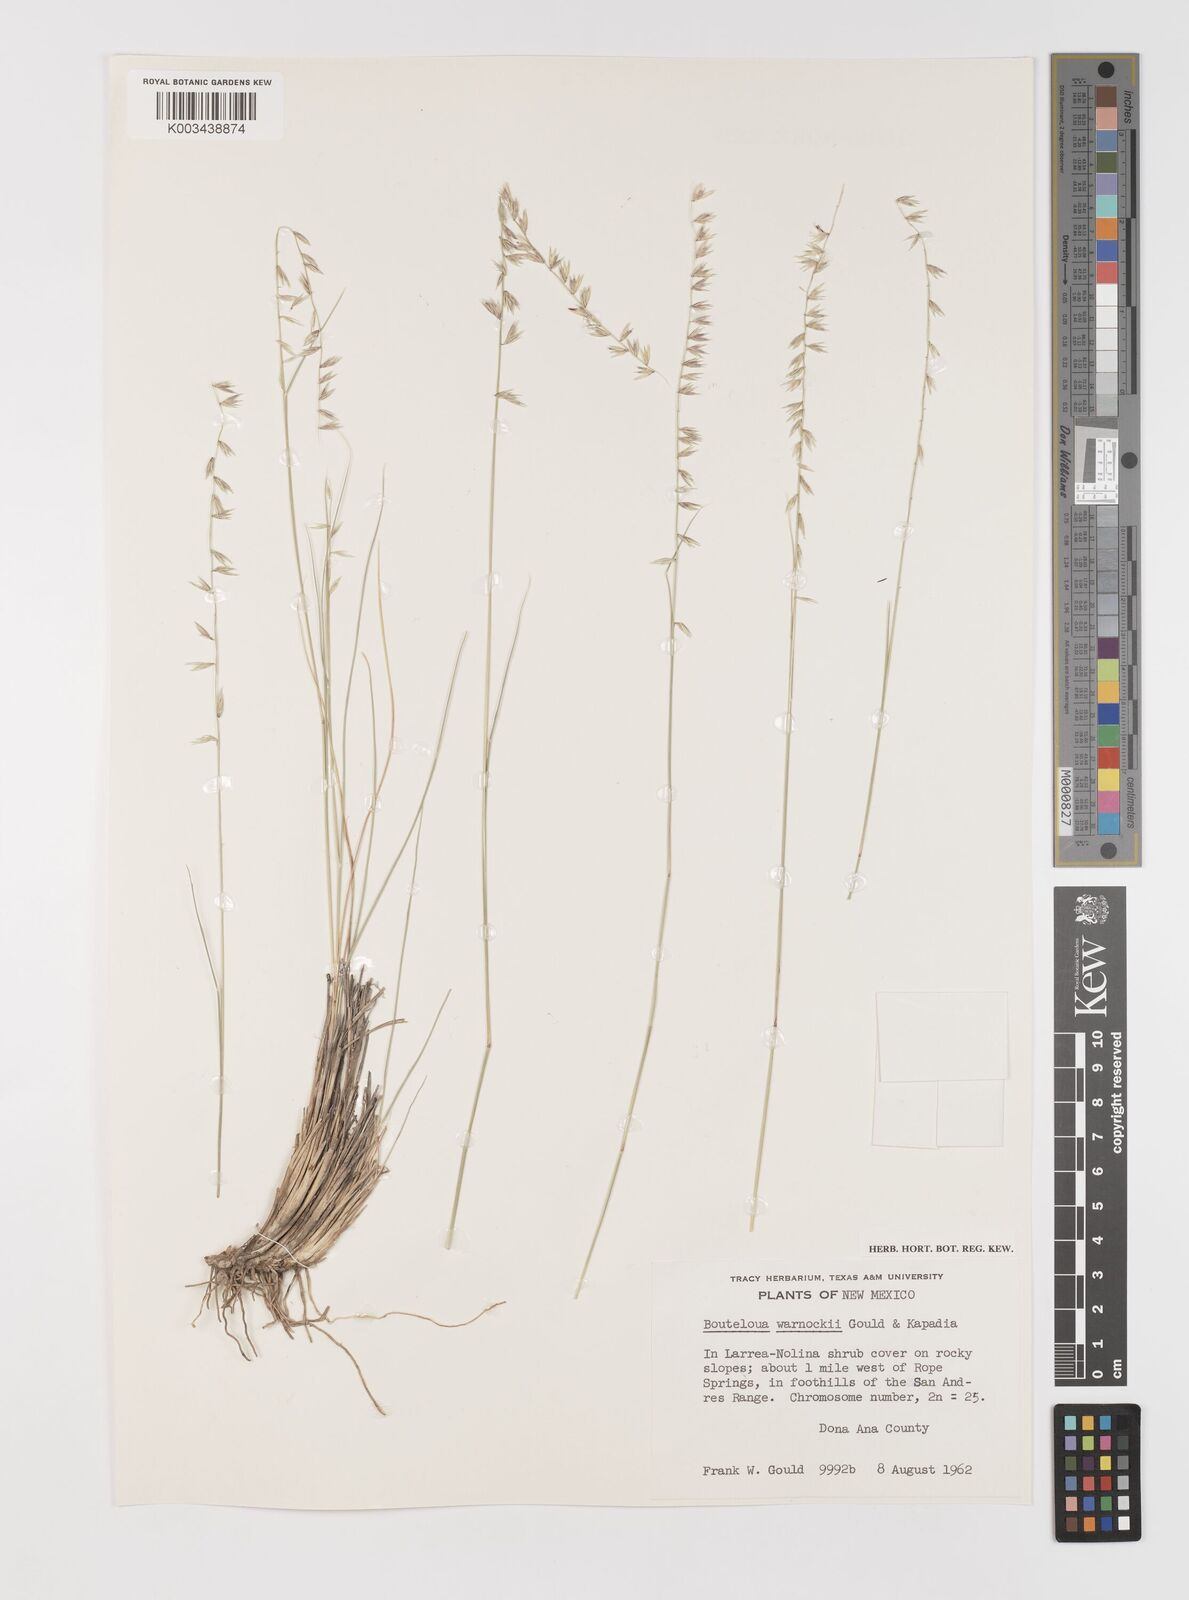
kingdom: Plantae
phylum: Tracheophyta
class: Liliopsida
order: Poales
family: Poaceae
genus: Bouteloua
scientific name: Bouteloua warnockii
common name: Warnock's grama
